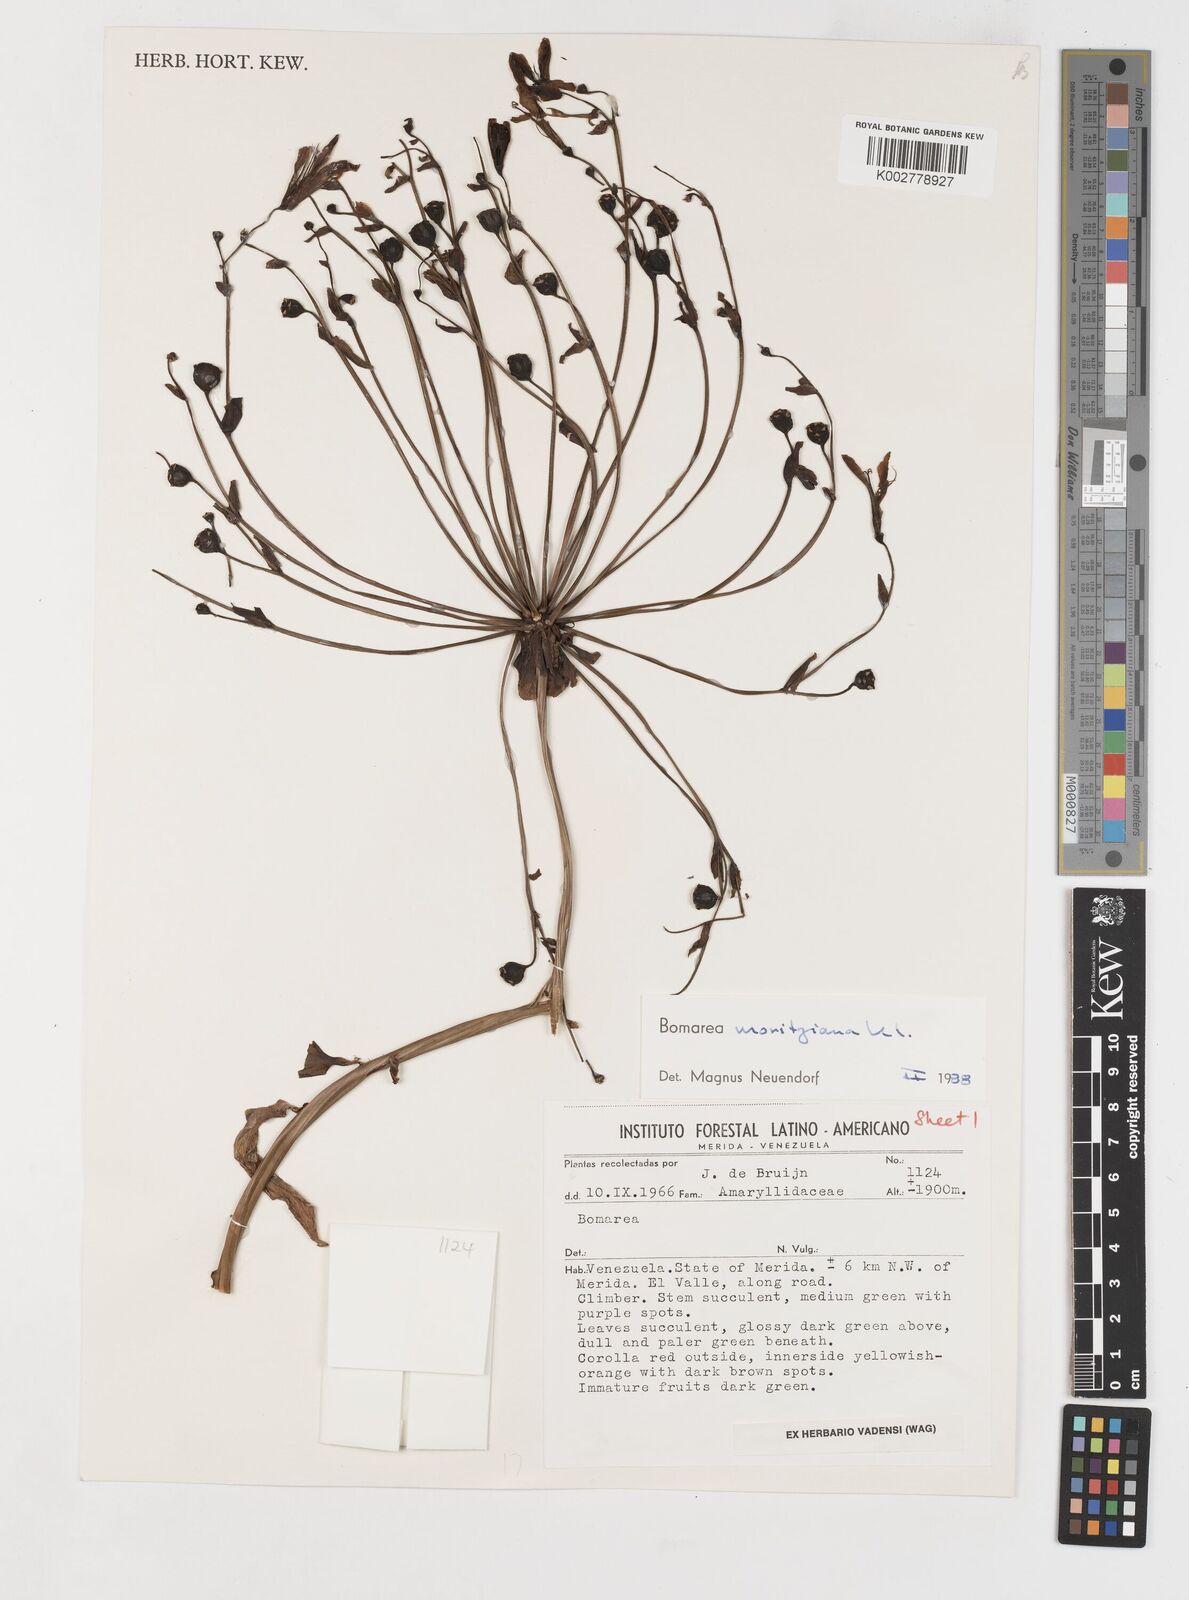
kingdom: Plantae
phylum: Tracheophyta
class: Liliopsida
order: Liliales
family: Alstroemeriaceae
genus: Bomarea
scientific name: Bomarea moritziana
